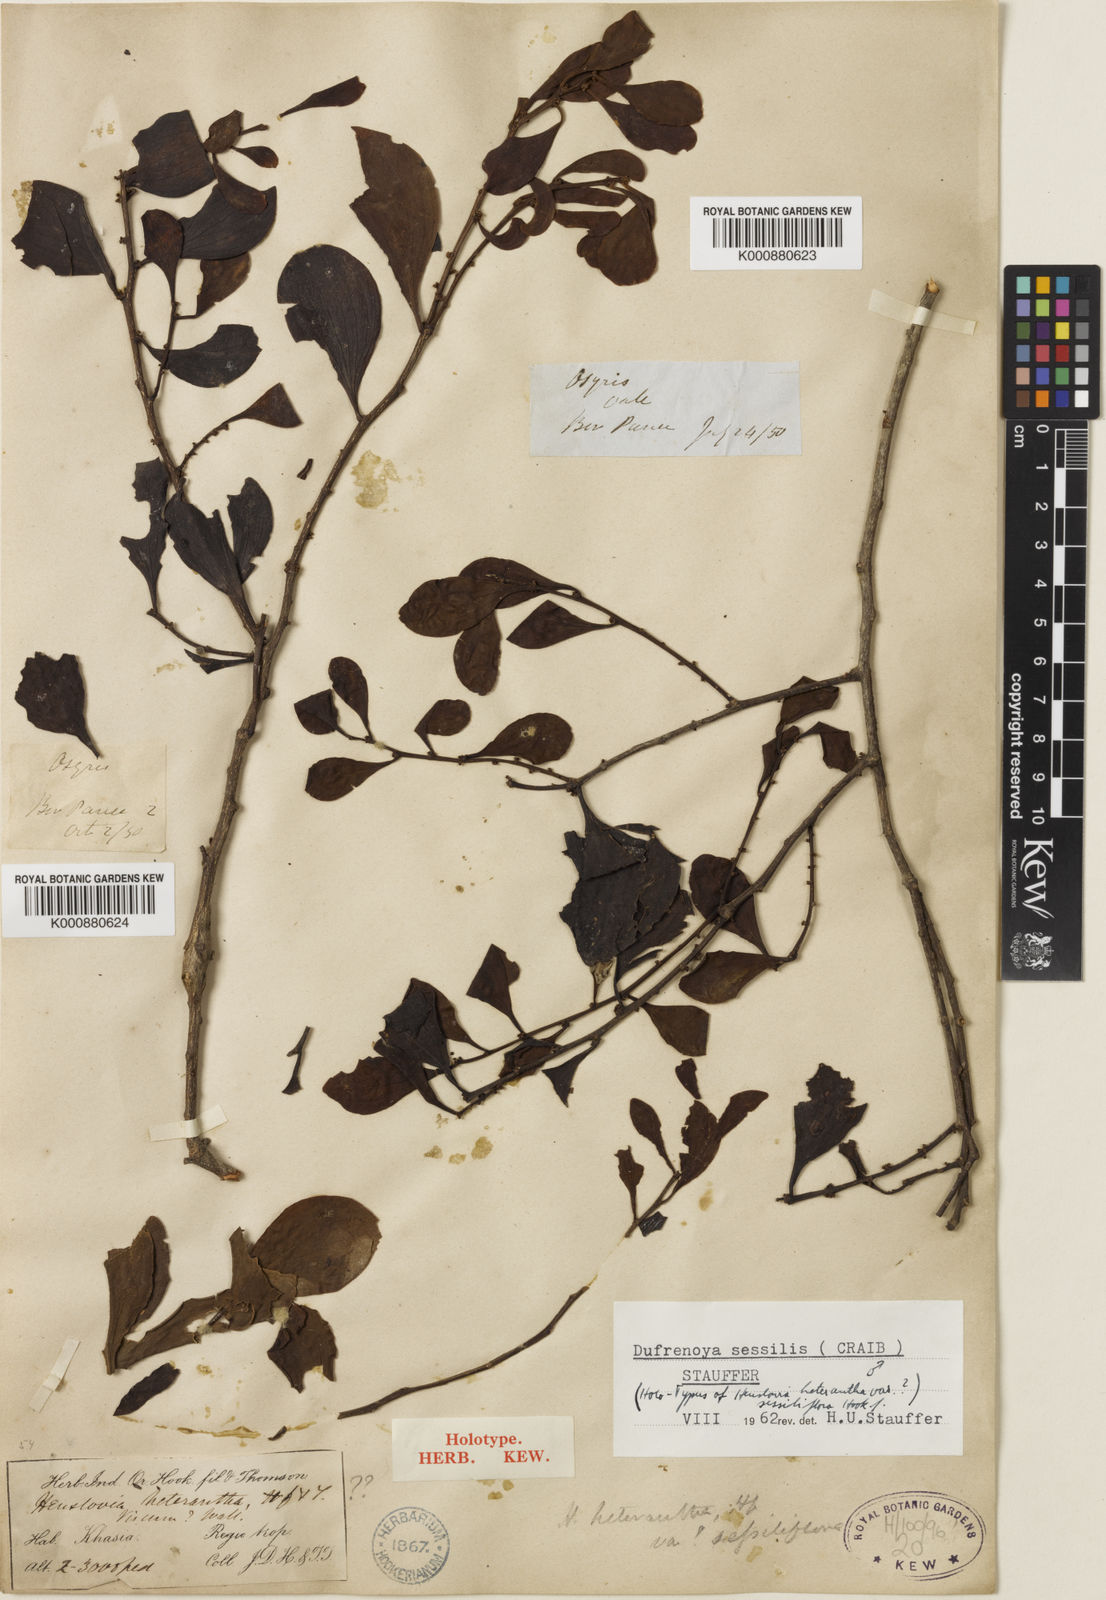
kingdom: Plantae
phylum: Tracheophyta
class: Magnoliopsida
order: Santalales
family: Amphorogynaceae
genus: Dufrenoya
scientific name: Dufrenoya sessilis
